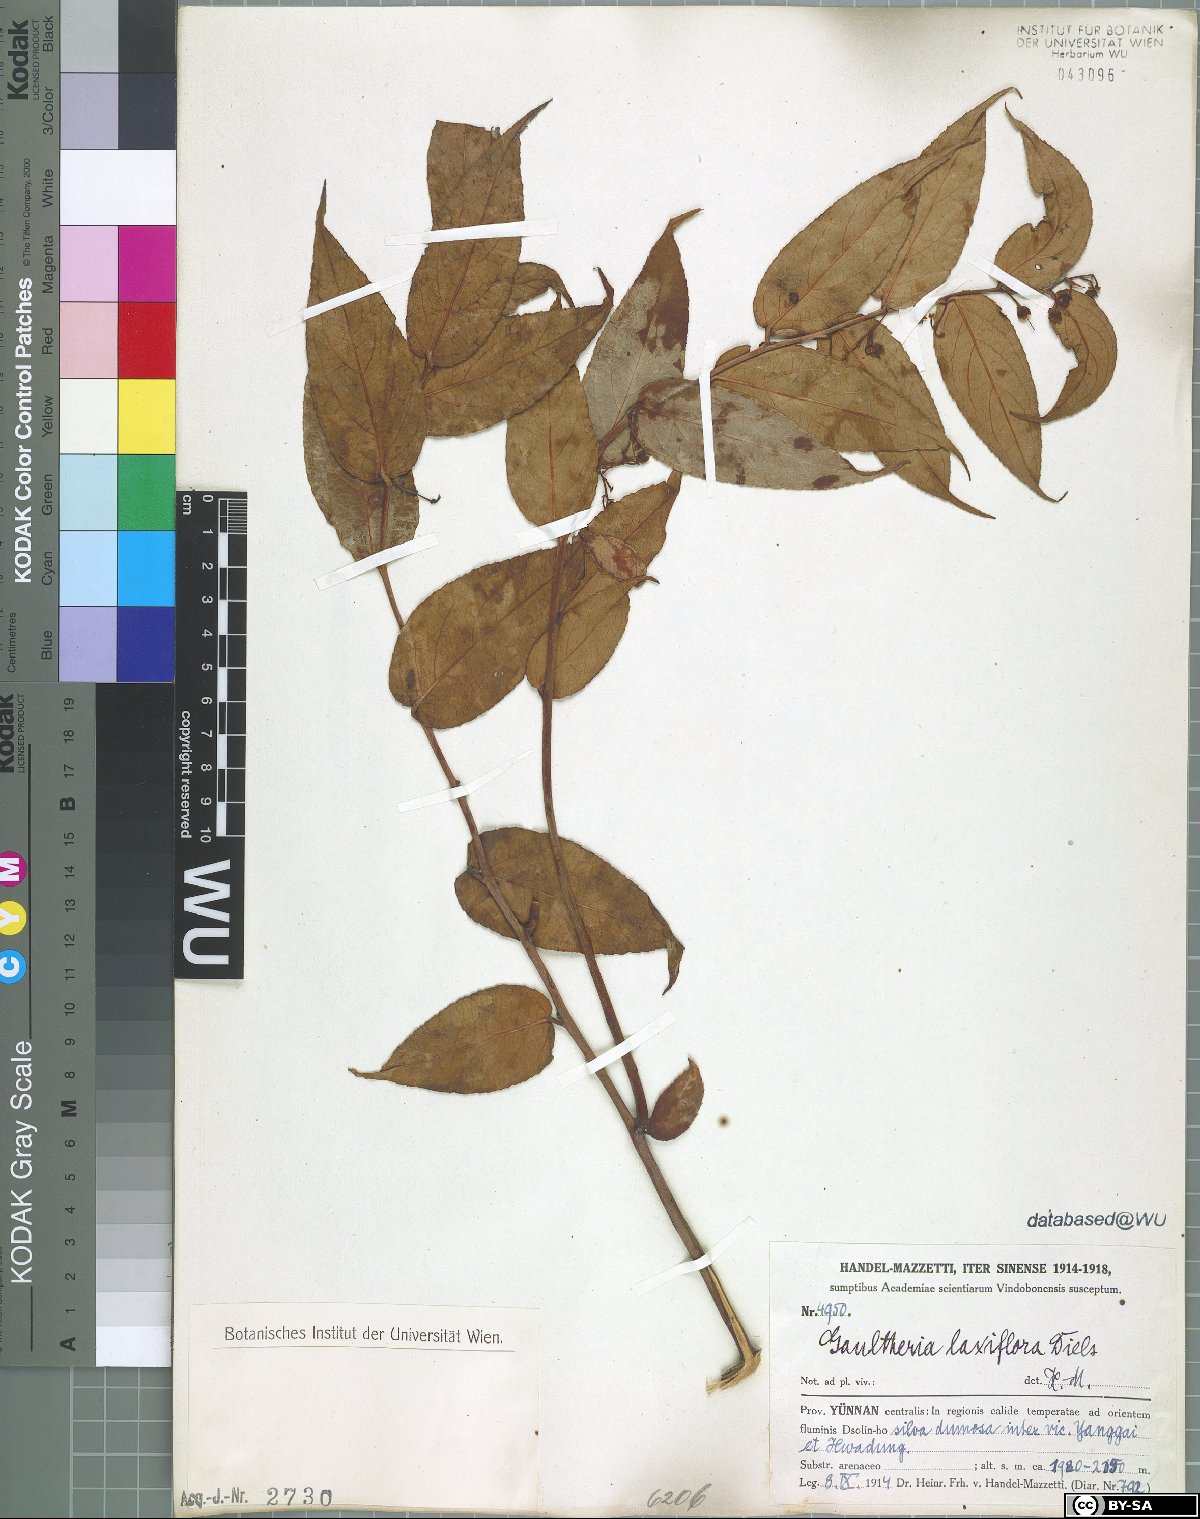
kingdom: Plantae
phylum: Tracheophyta
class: Magnoliopsida
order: Ericales
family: Ericaceae
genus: Gaultheria
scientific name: Gaultheria leucocarpa
